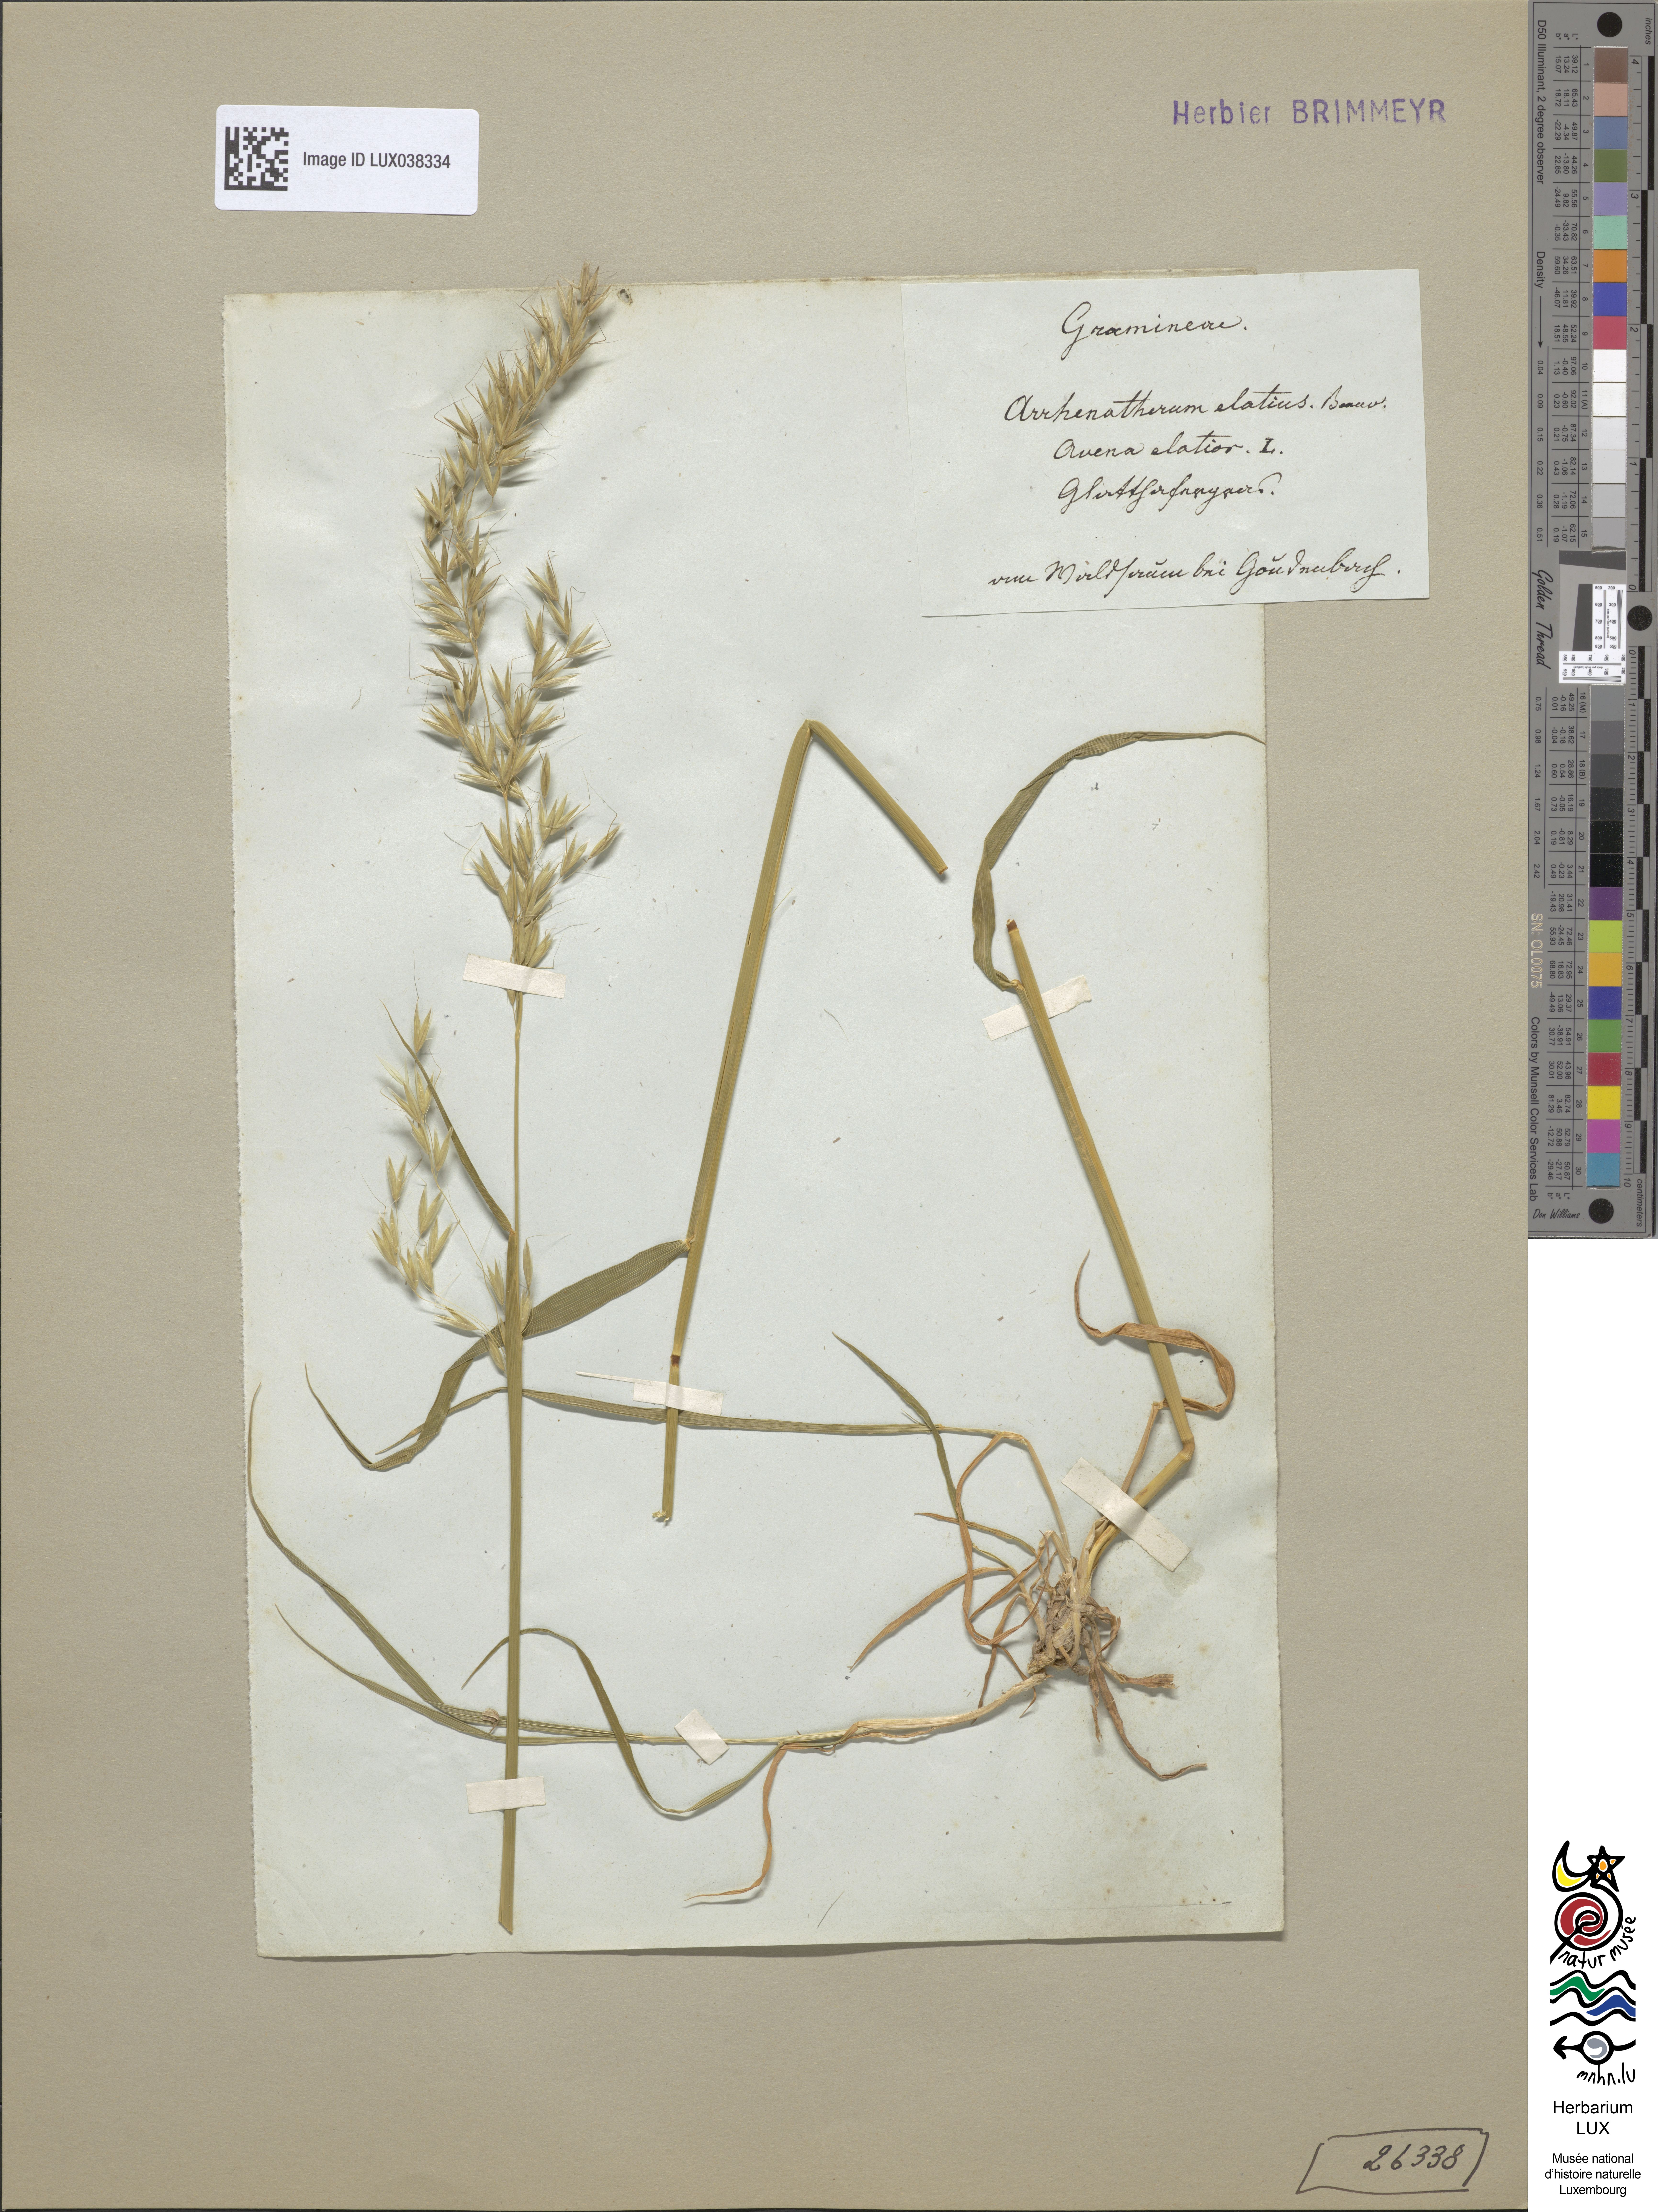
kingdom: Plantae
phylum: Tracheophyta
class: Liliopsida
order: Poales
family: Poaceae
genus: Arrhenatherum
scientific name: Arrhenatherum elatius
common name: Tall oatgrass
